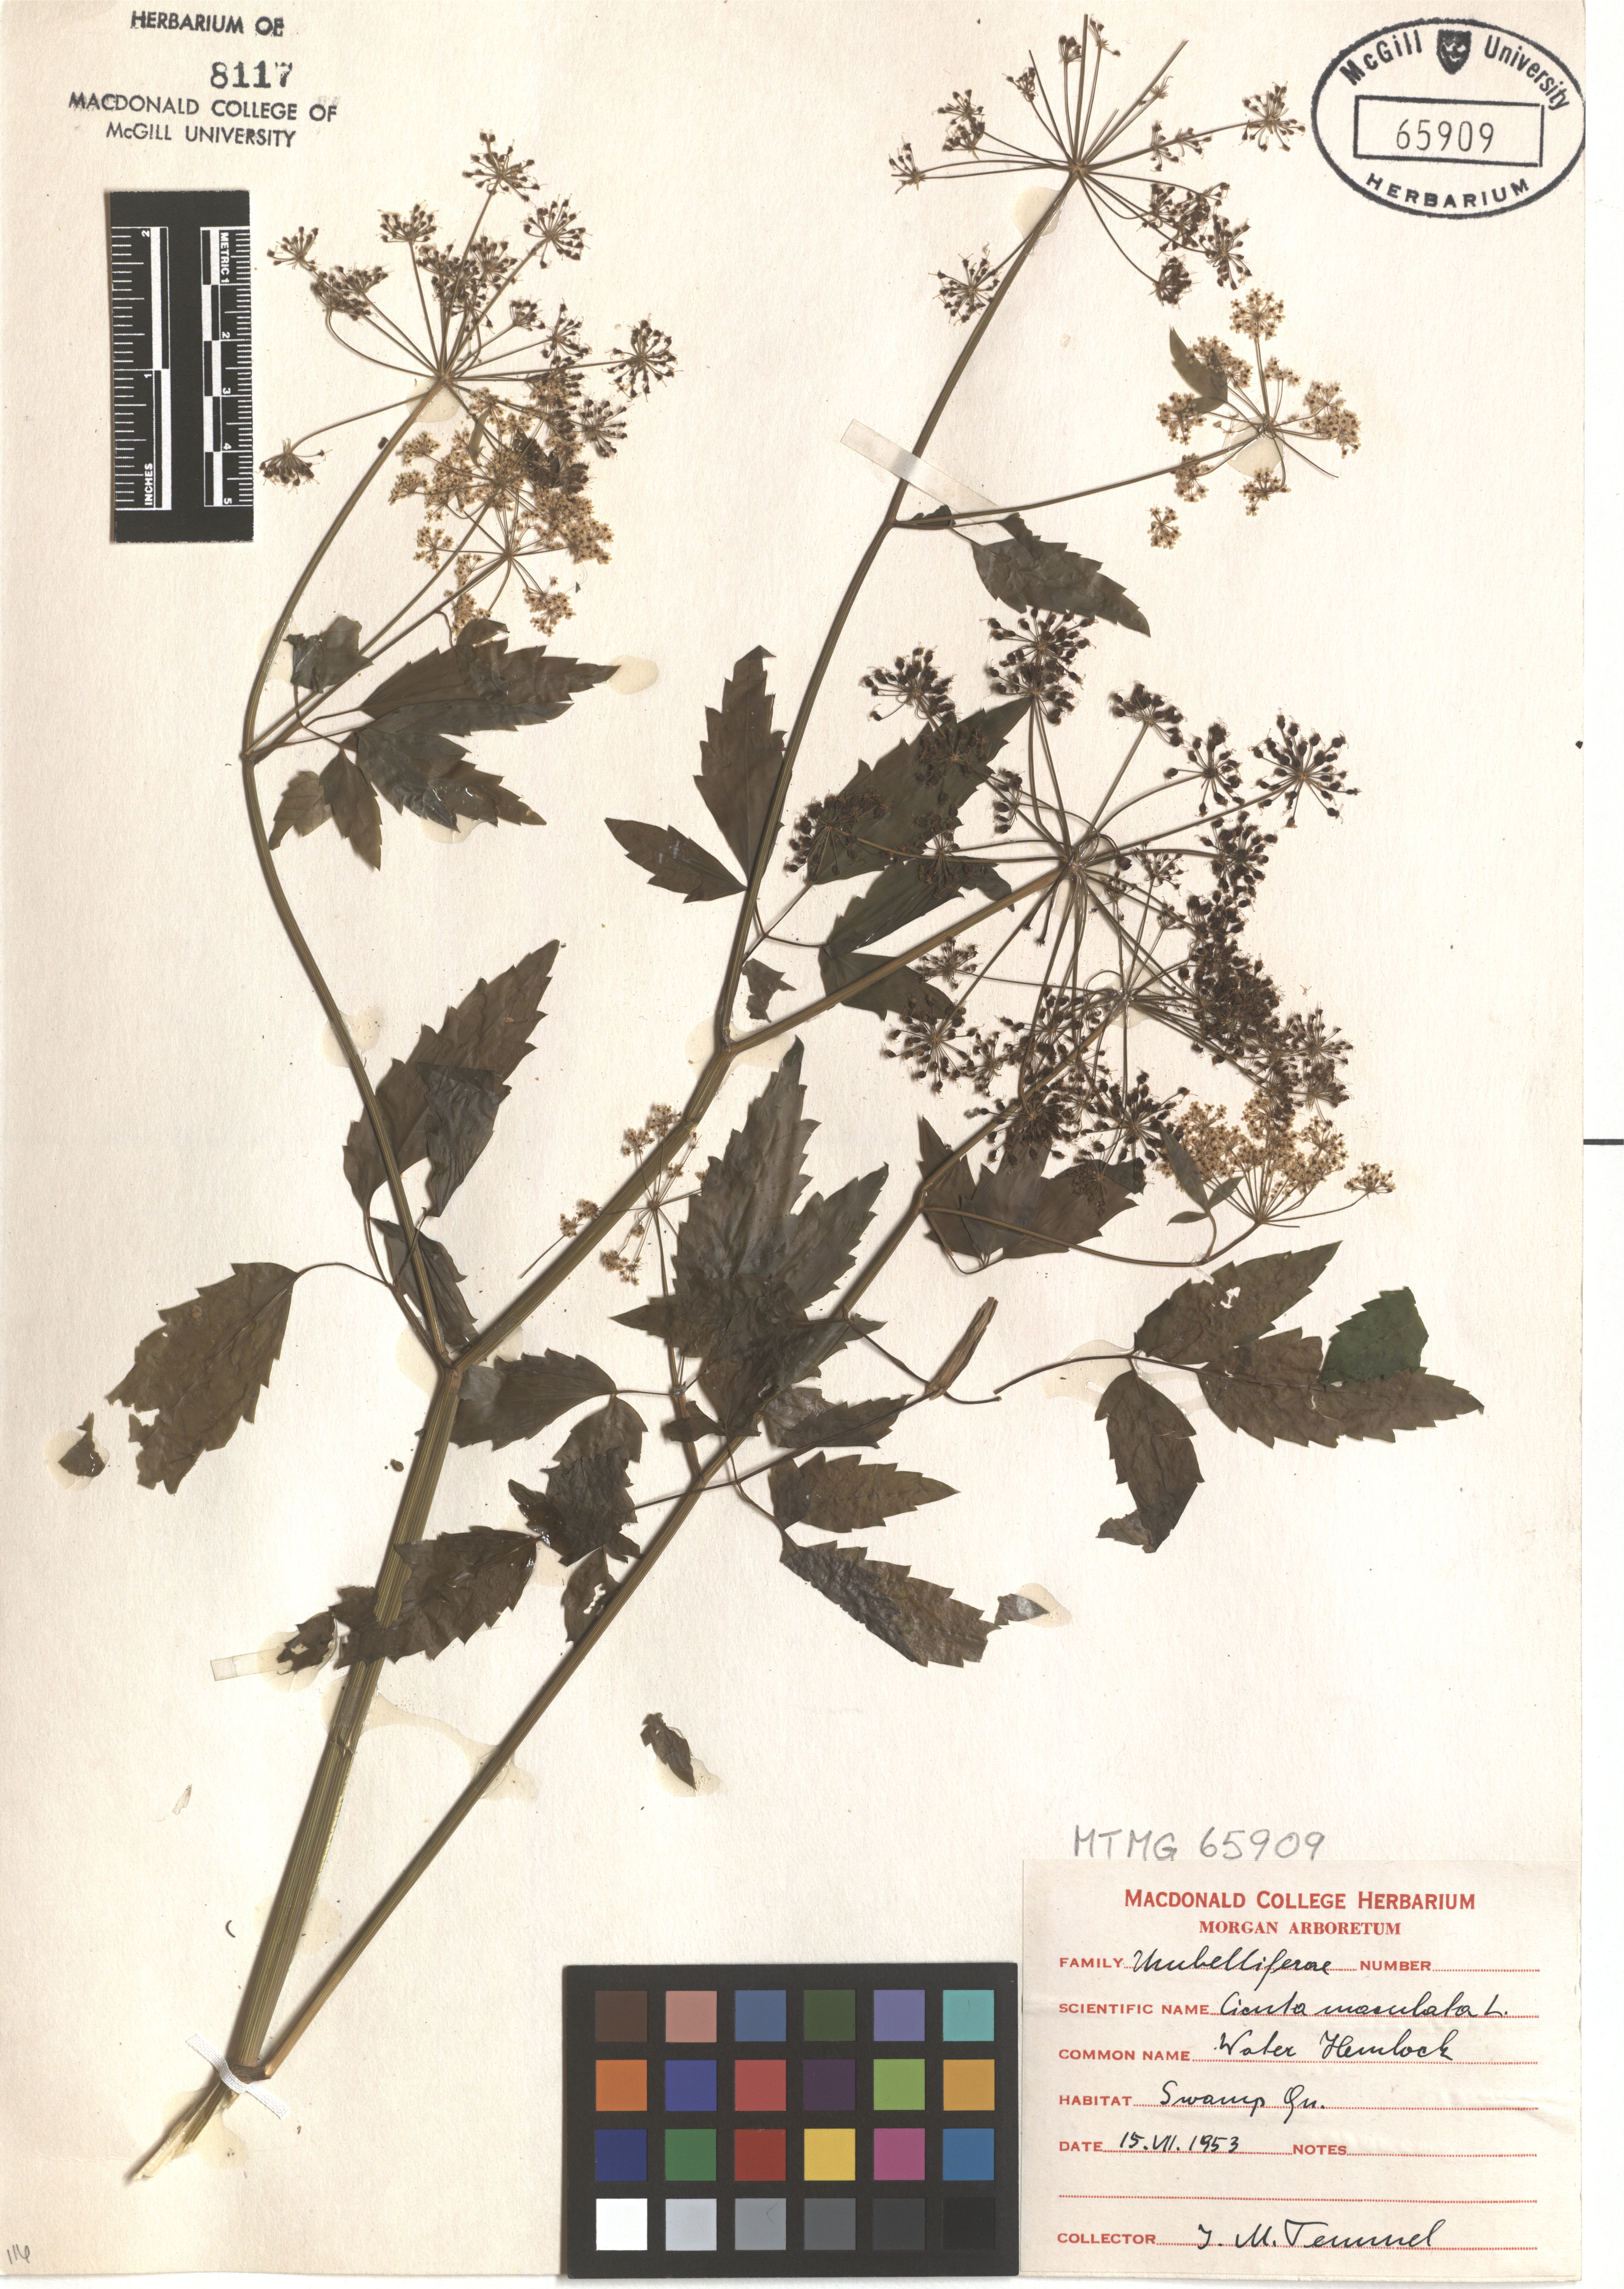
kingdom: Plantae
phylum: Tracheophyta
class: Magnoliopsida
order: Apiales
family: Apiaceae
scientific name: Apiaceae
